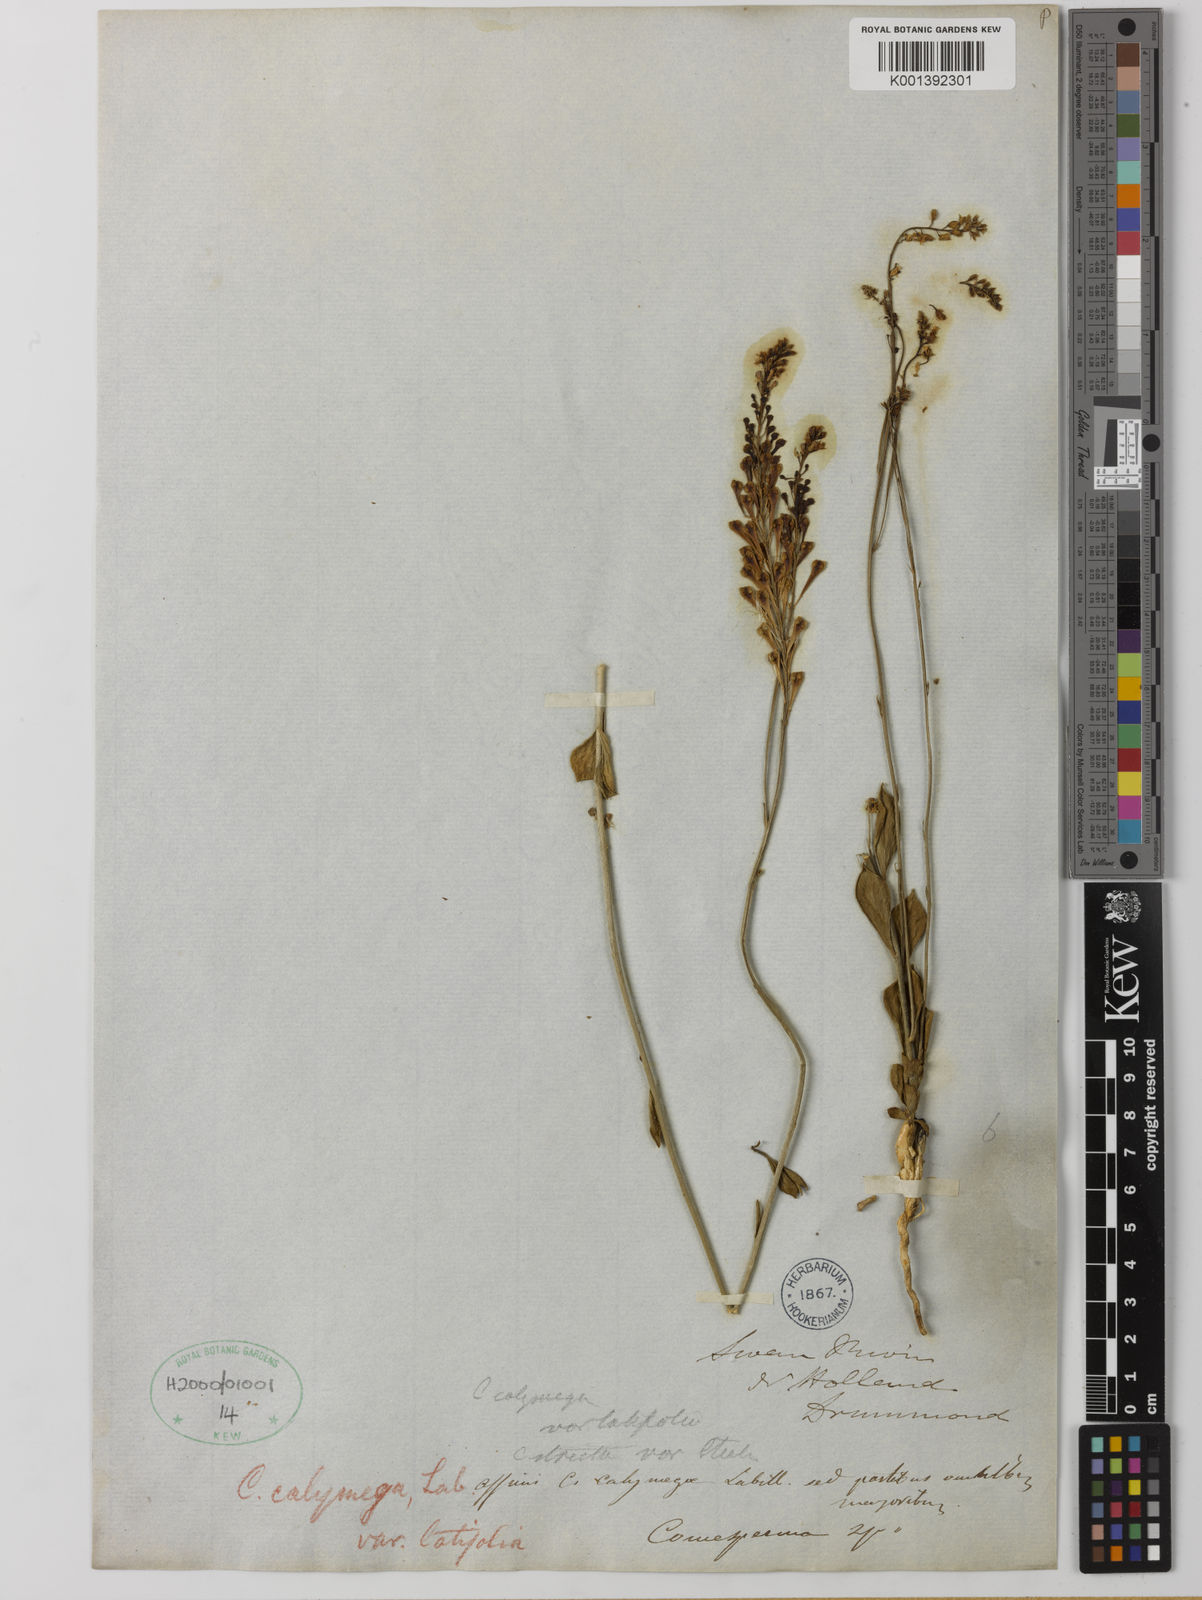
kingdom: Plantae
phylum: Tracheophyta
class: Magnoliopsida
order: Fabales
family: Polygalaceae
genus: Comesperma
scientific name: Comesperma calymega
